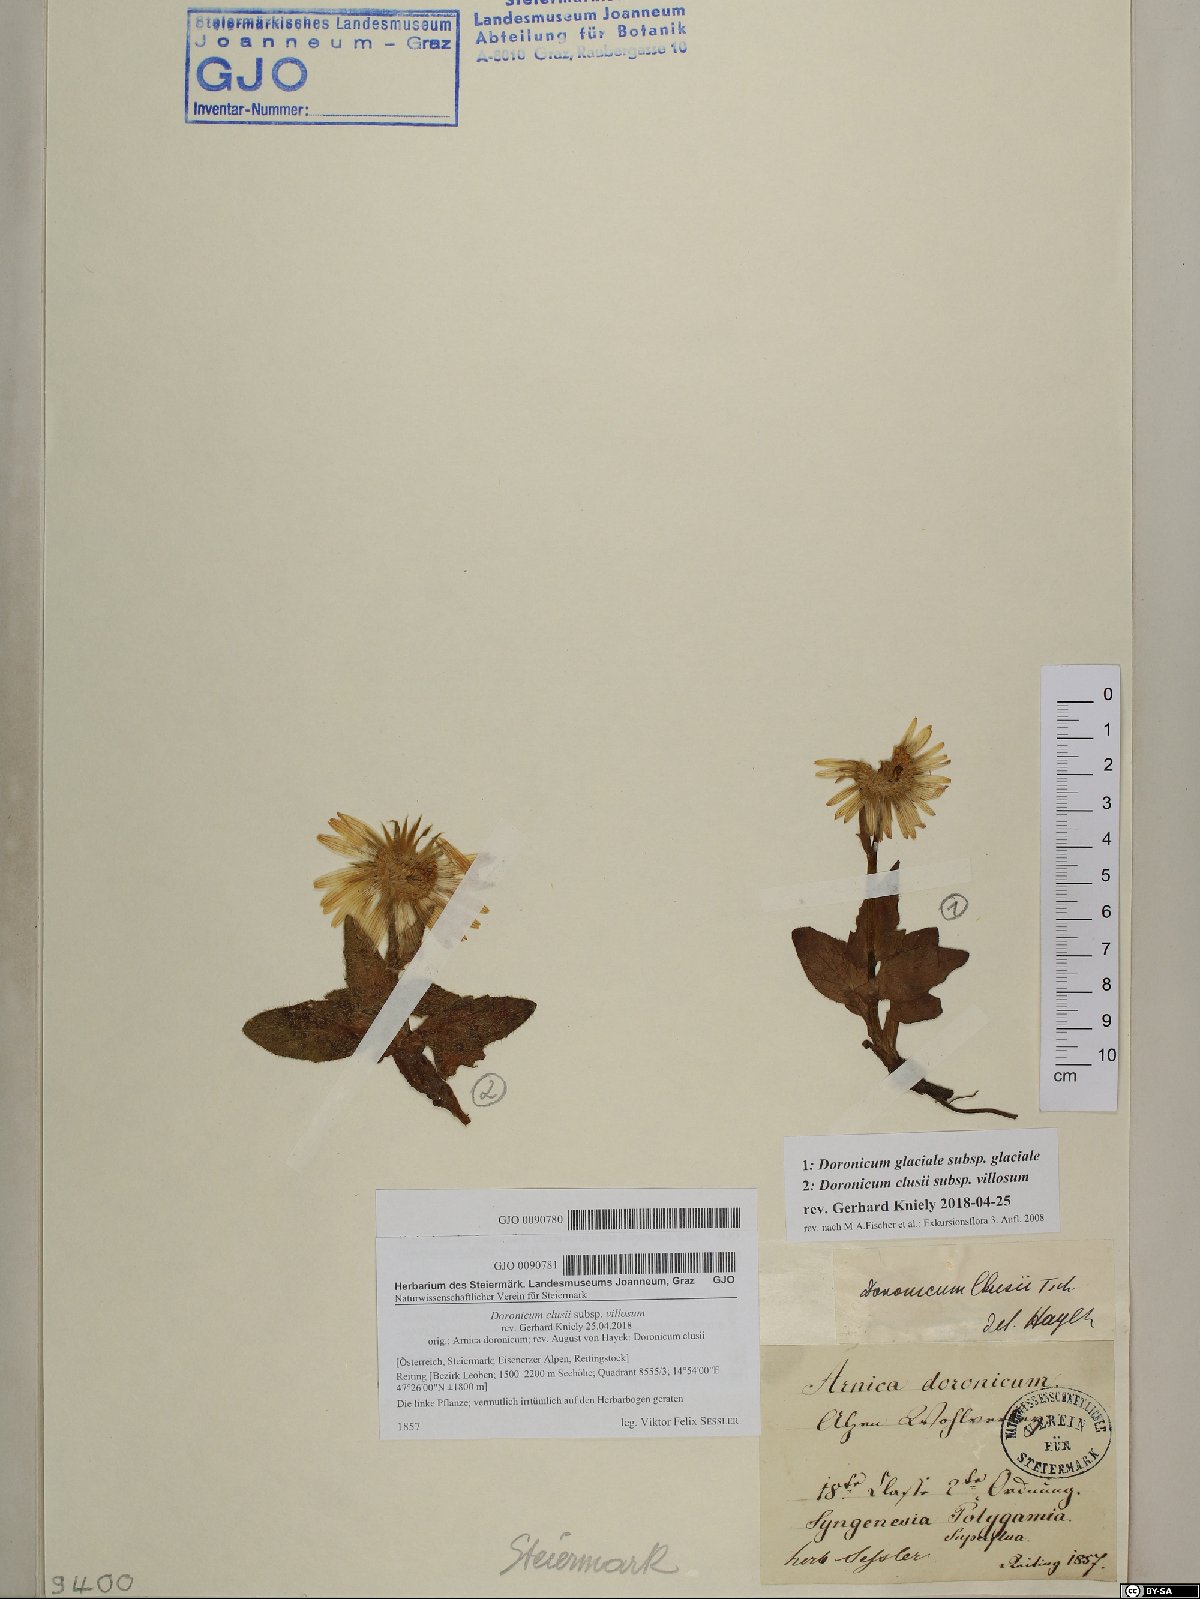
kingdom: Plantae
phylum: Tracheophyta
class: Magnoliopsida
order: Asterales
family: Asteraceae
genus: Doronicum
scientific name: Doronicum clusii
